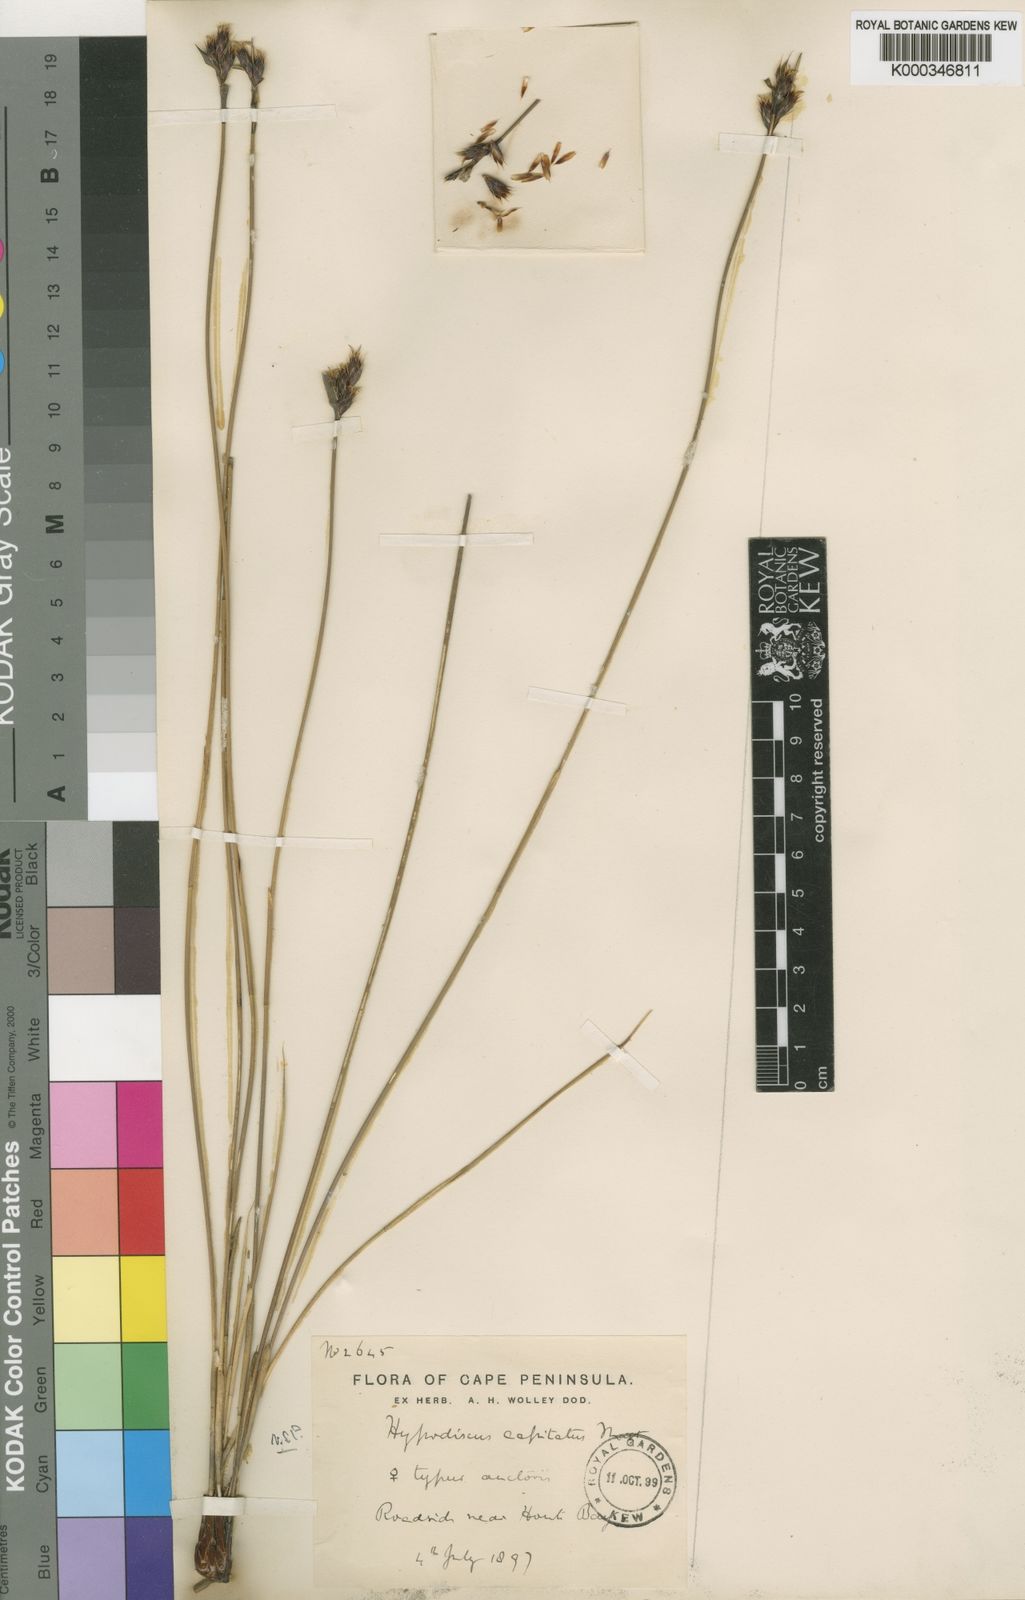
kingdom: Plantae
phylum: Tracheophyta
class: Liliopsida
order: Poales
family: Restionaceae
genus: Hypodiscus
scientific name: Hypodiscus alboaristatus
